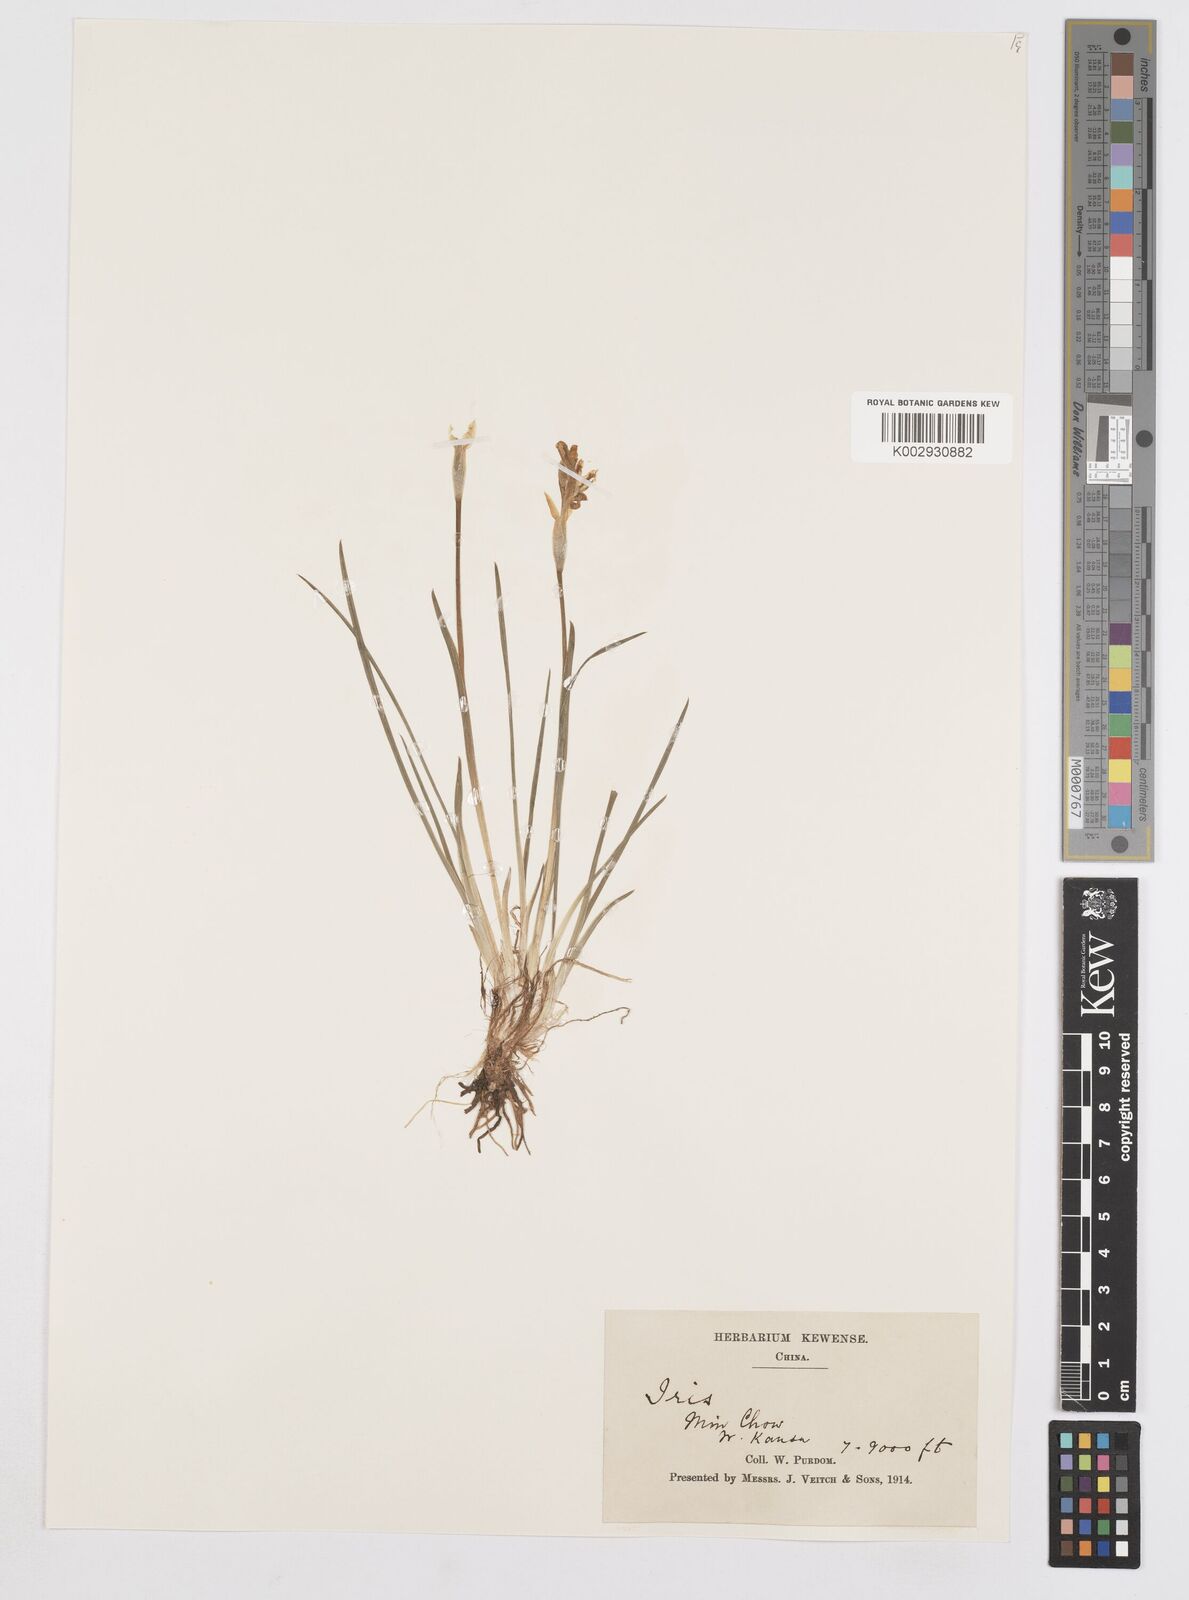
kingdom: Plantae
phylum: Tracheophyta
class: Liliopsida
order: Asparagales
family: Iridaceae
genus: Iris
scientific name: Iris goniocarpa
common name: Angular-fruit iris
